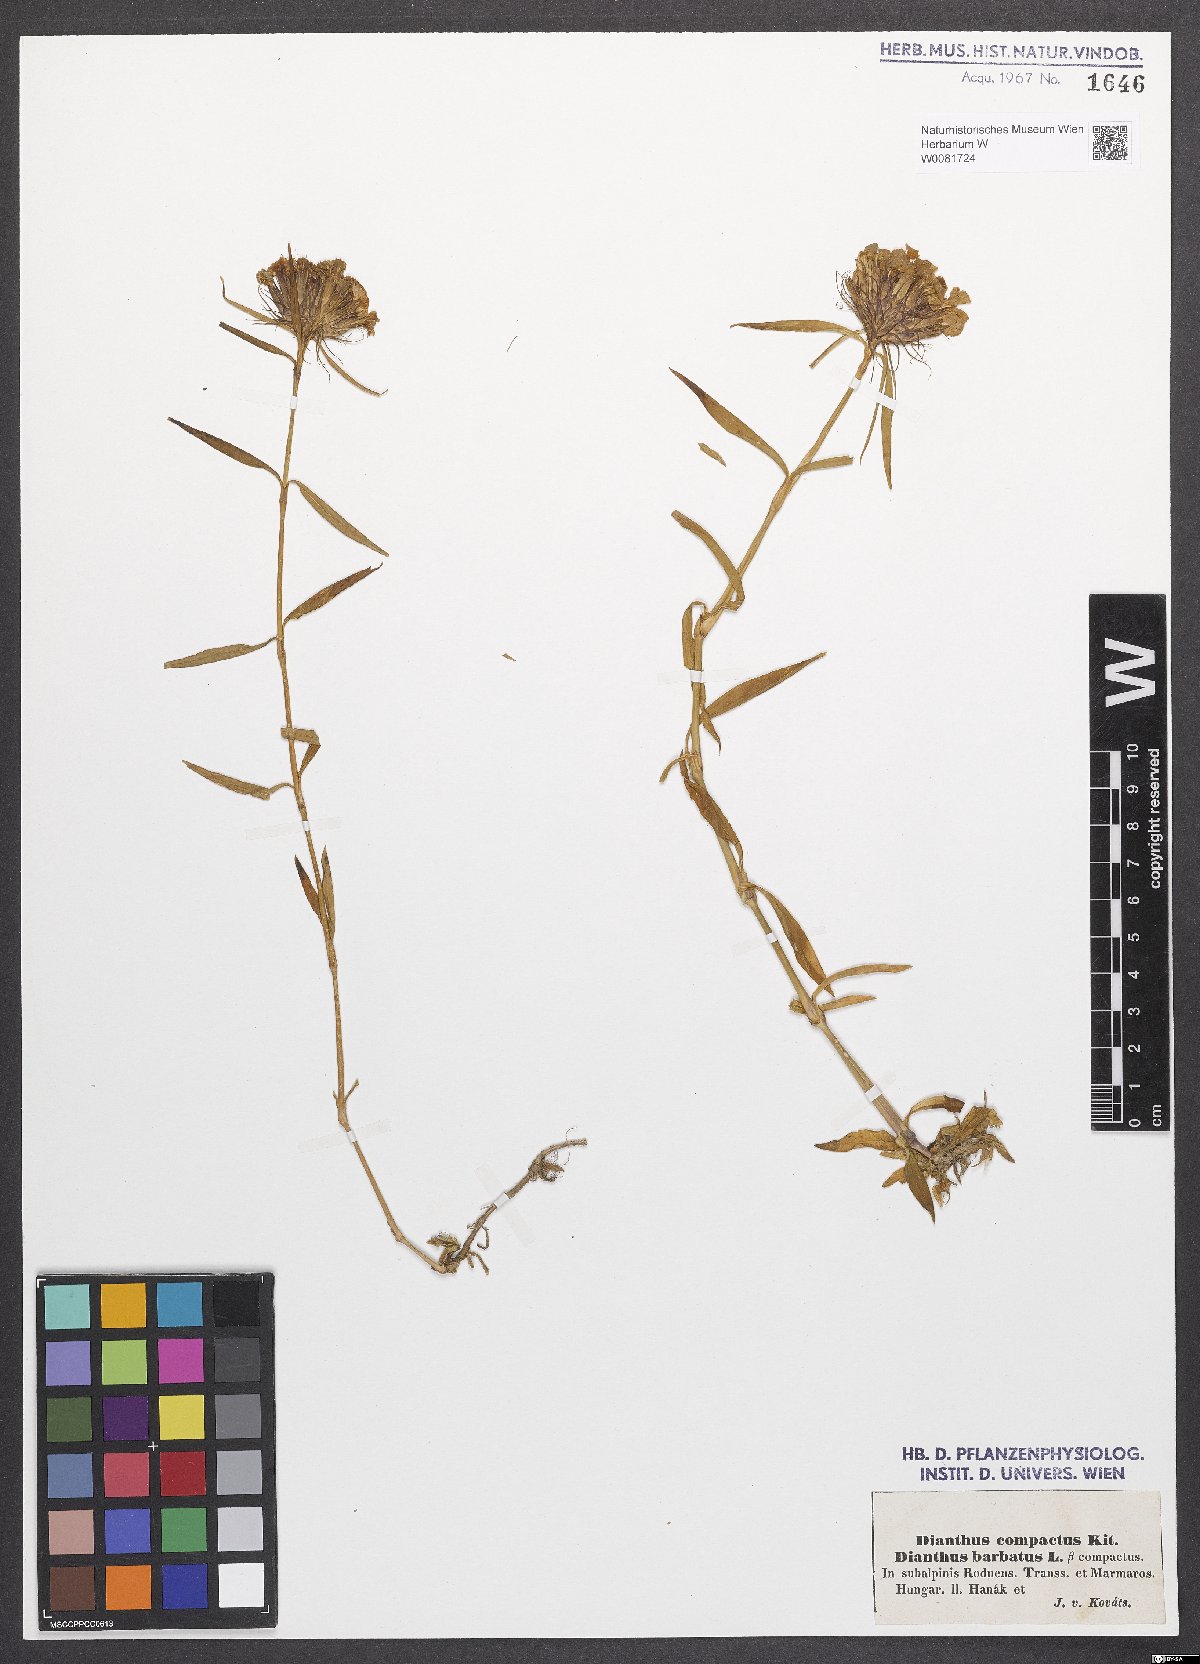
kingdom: Plantae
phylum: Tracheophyta
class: Magnoliopsida
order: Caryophyllales
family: Caryophyllaceae
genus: Dianthus
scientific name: Dianthus barbatus
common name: Sweet-william
